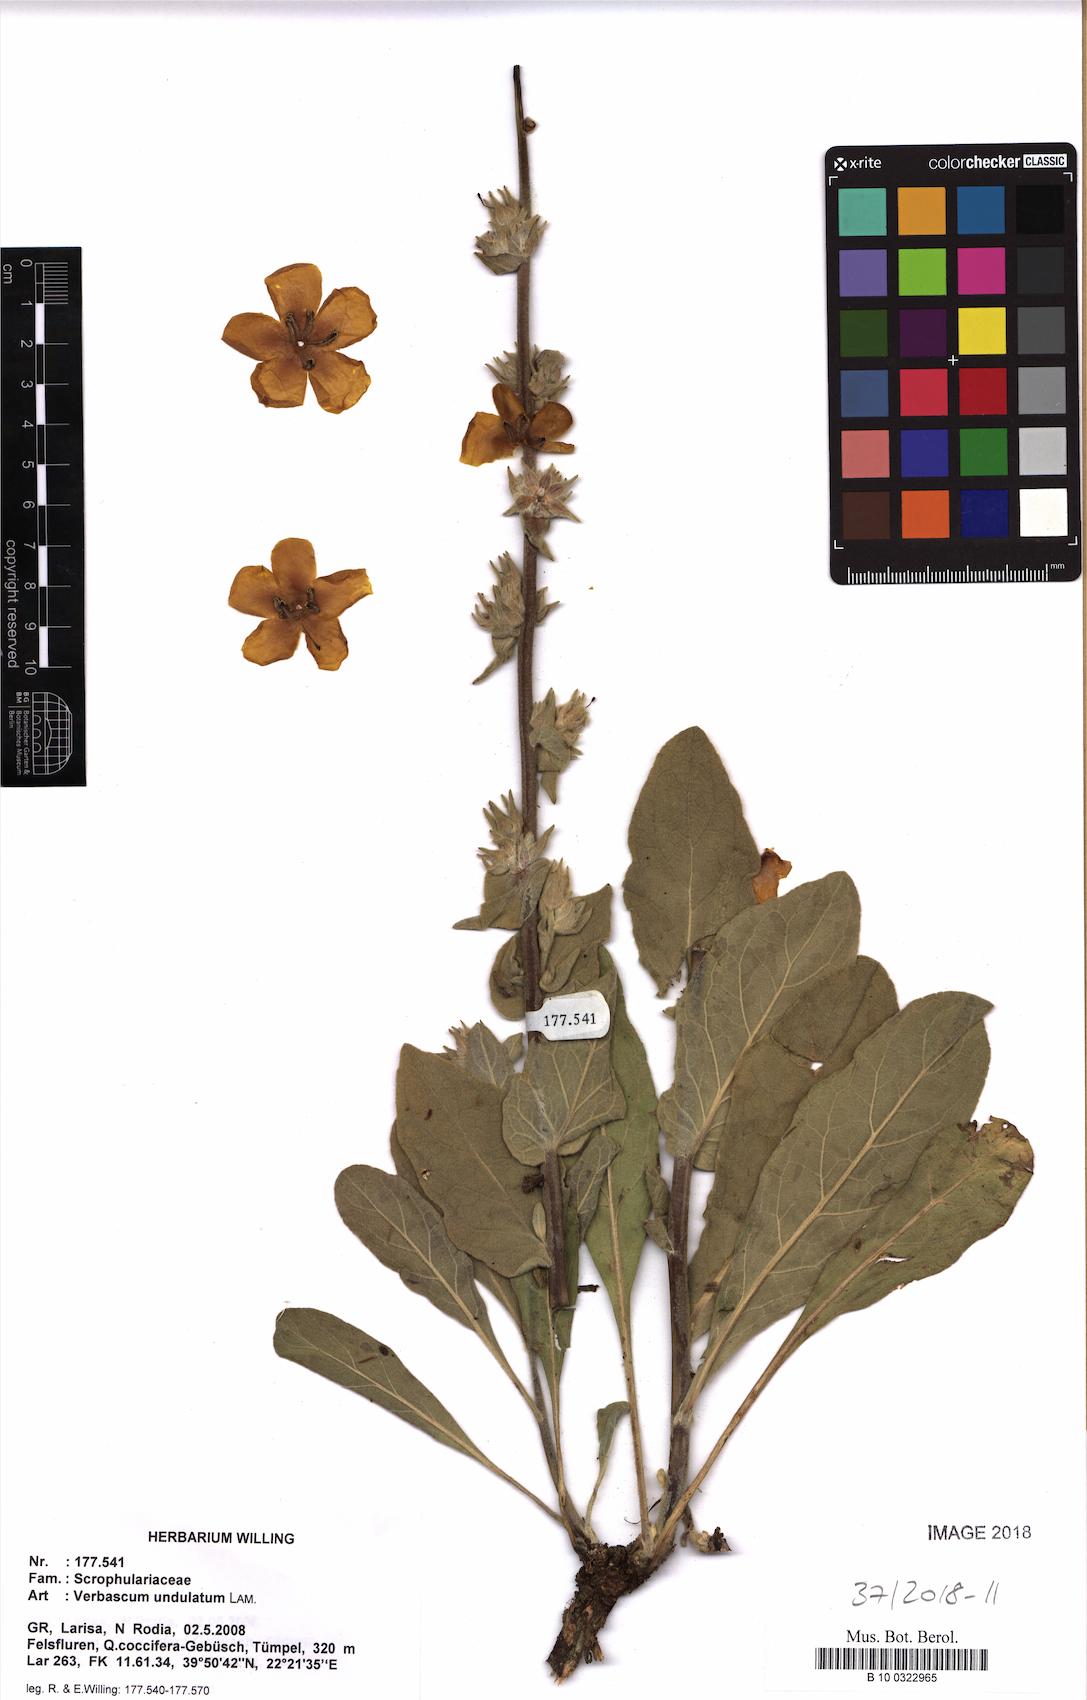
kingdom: Plantae
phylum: Tracheophyta
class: Magnoliopsida
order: Lamiales
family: Scrophulariaceae
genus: Verbascum
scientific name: Verbascum undulatum
